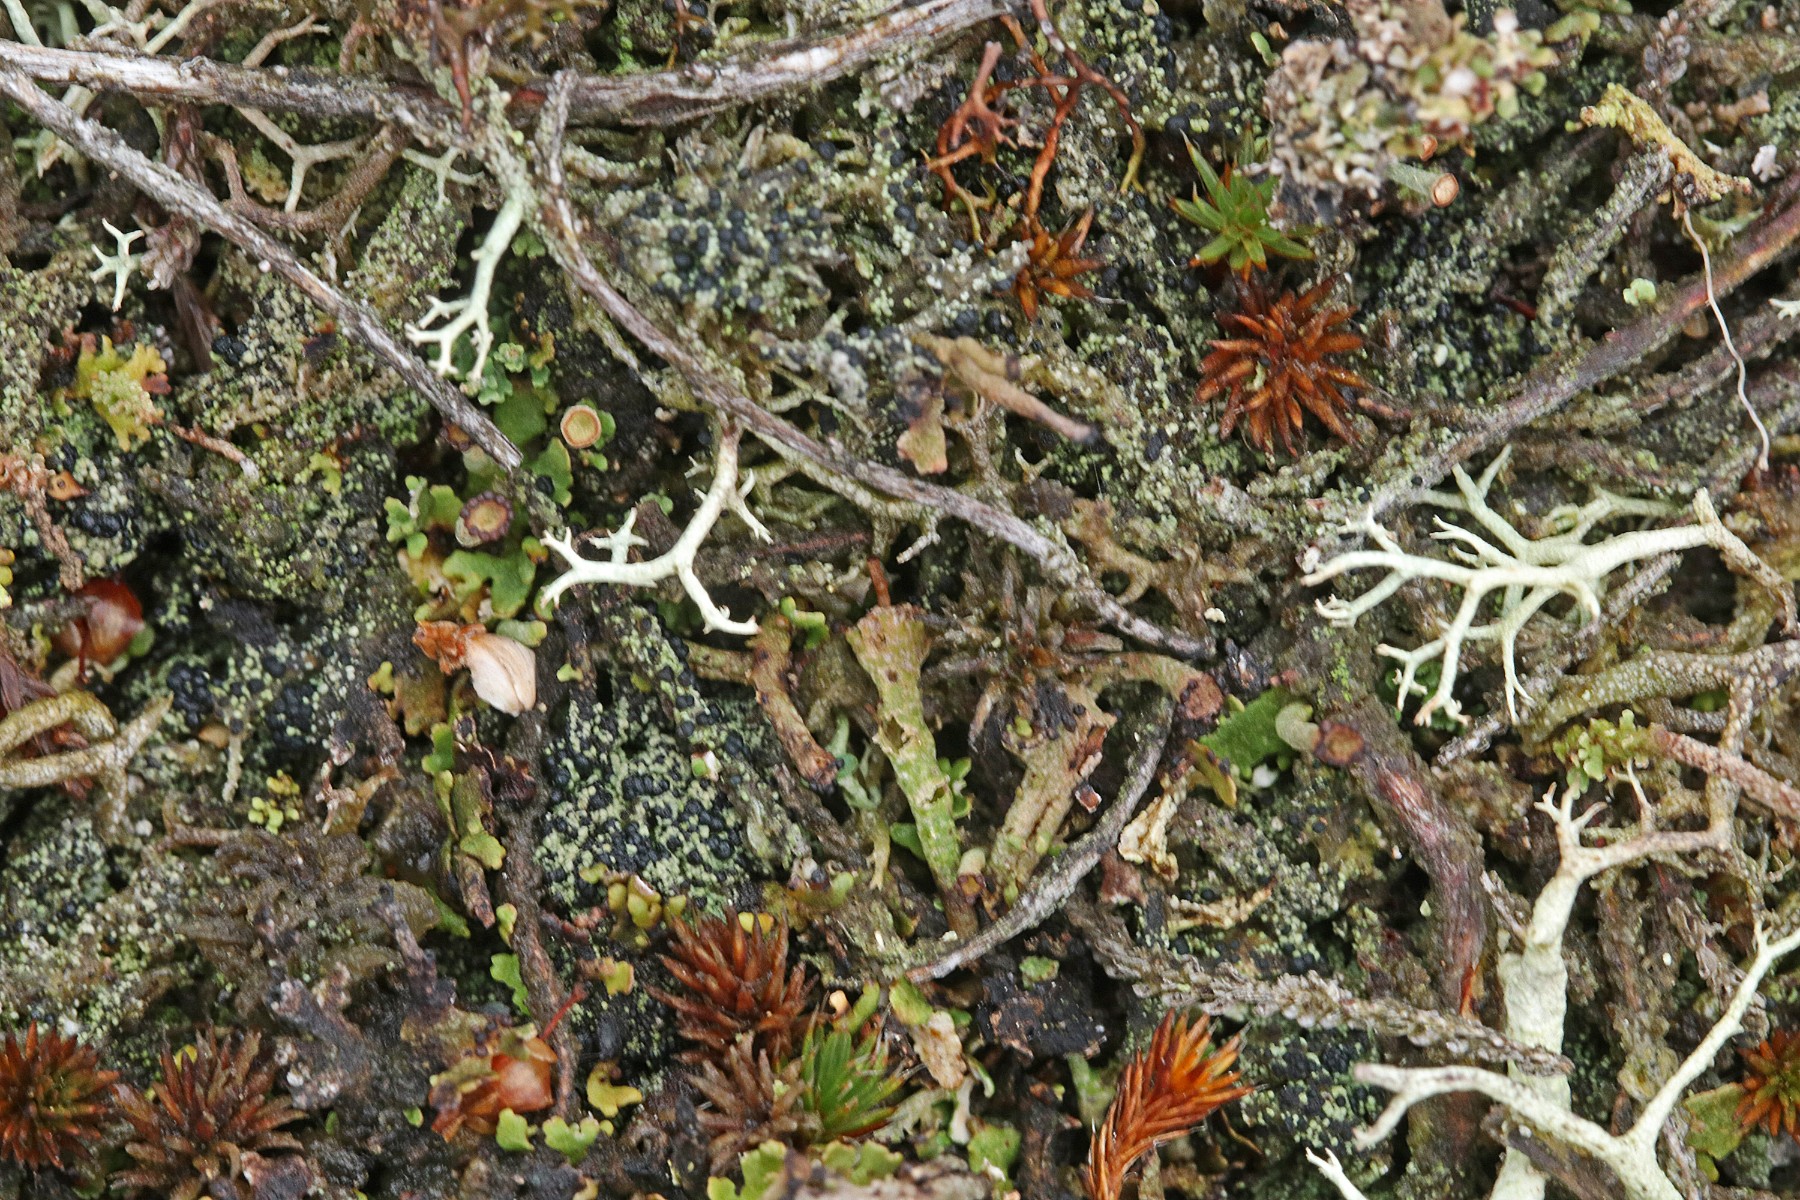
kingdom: Fungi
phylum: Ascomycota
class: Lecanoromycetes
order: Lecanorales
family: Byssolomataceae
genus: Micarea
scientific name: Micarea lignaria
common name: tørve-knaplav
